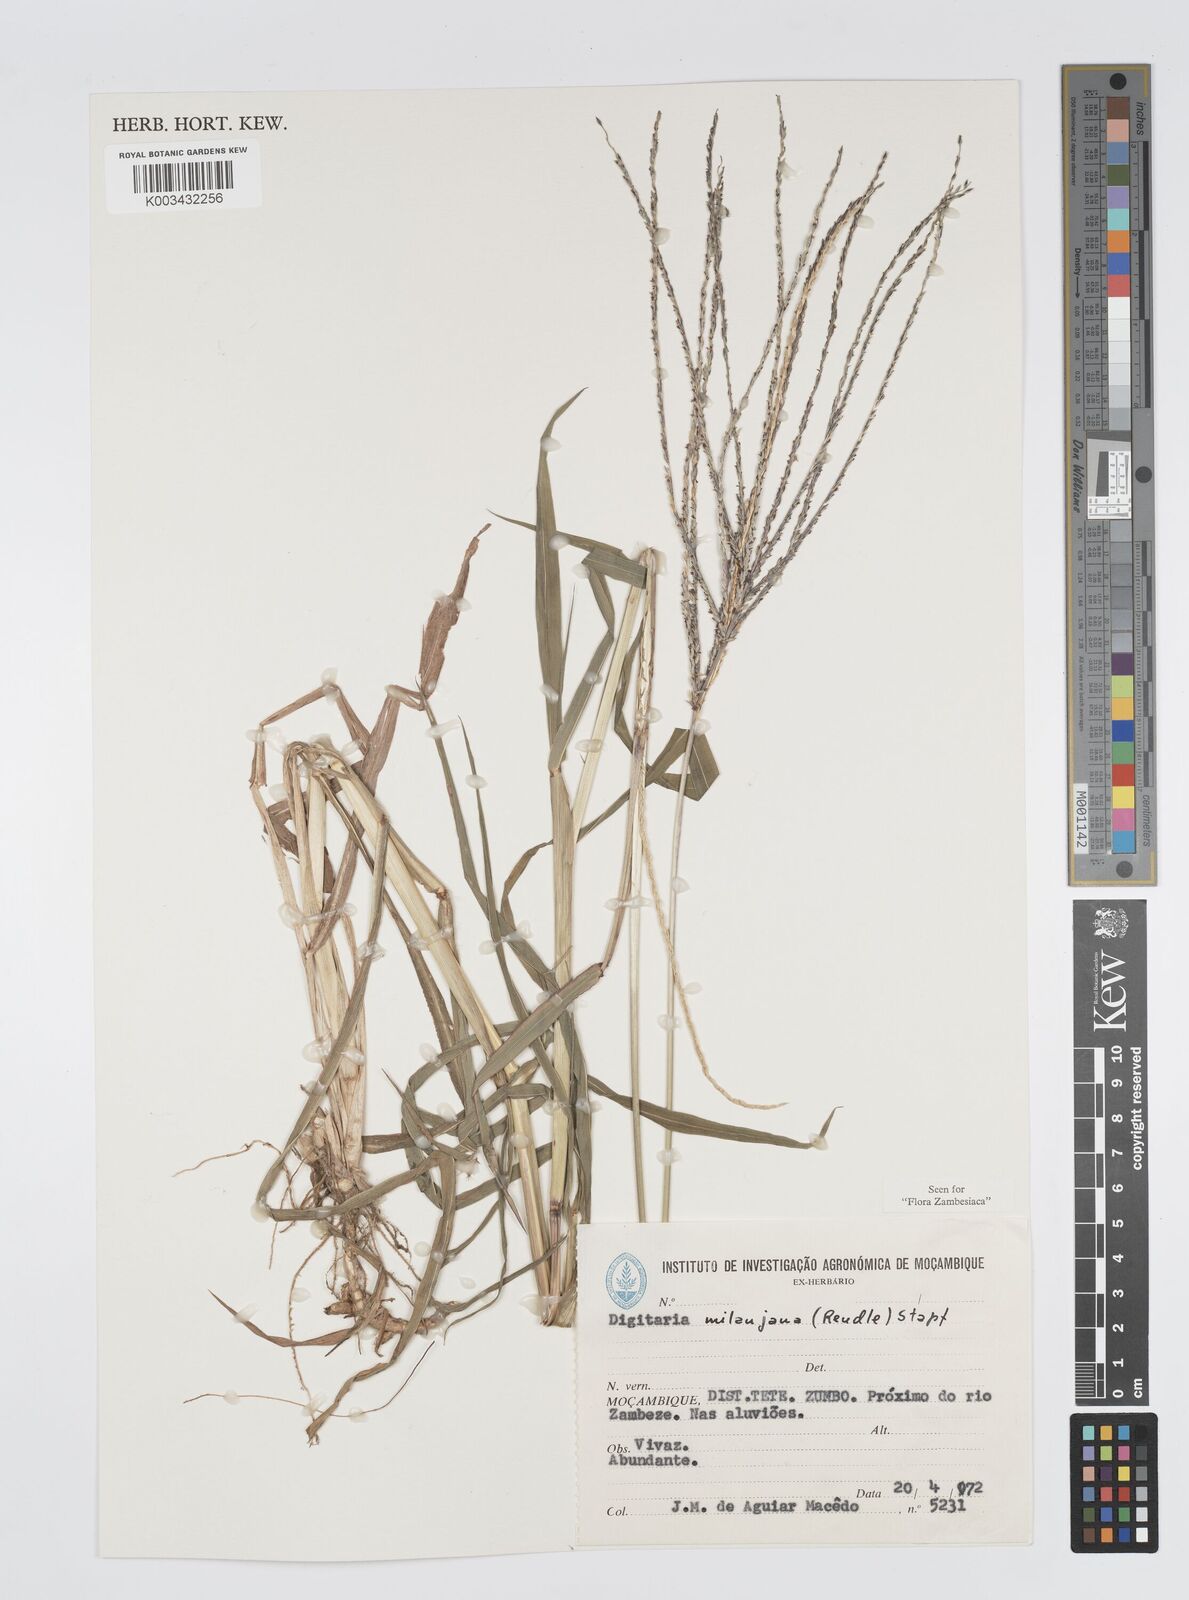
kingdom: Plantae
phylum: Tracheophyta
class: Liliopsida
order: Poales
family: Poaceae
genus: Digitaria
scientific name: Digitaria milanjiana
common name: Madagascar crabgrass
